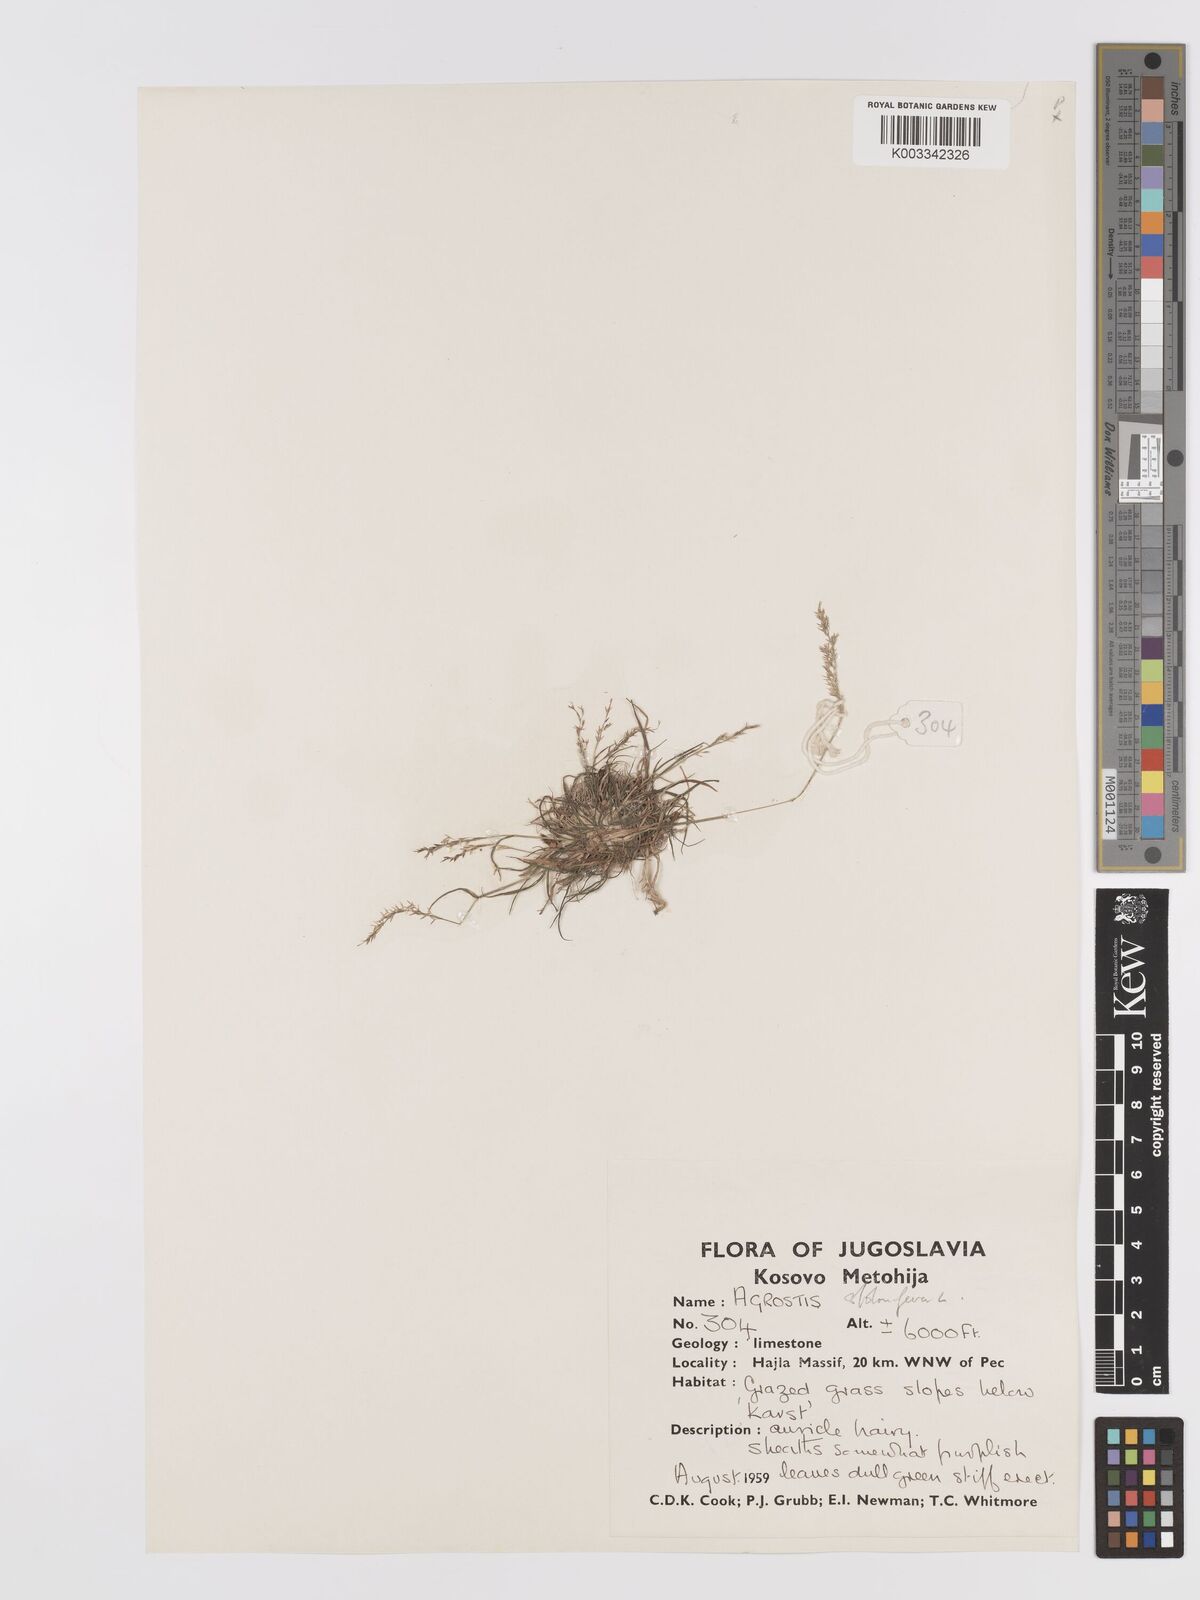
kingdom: Plantae
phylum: Tracheophyta
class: Liliopsida
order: Poales
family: Poaceae
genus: Agrostis
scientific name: Agrostis gigantea
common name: Black bent
